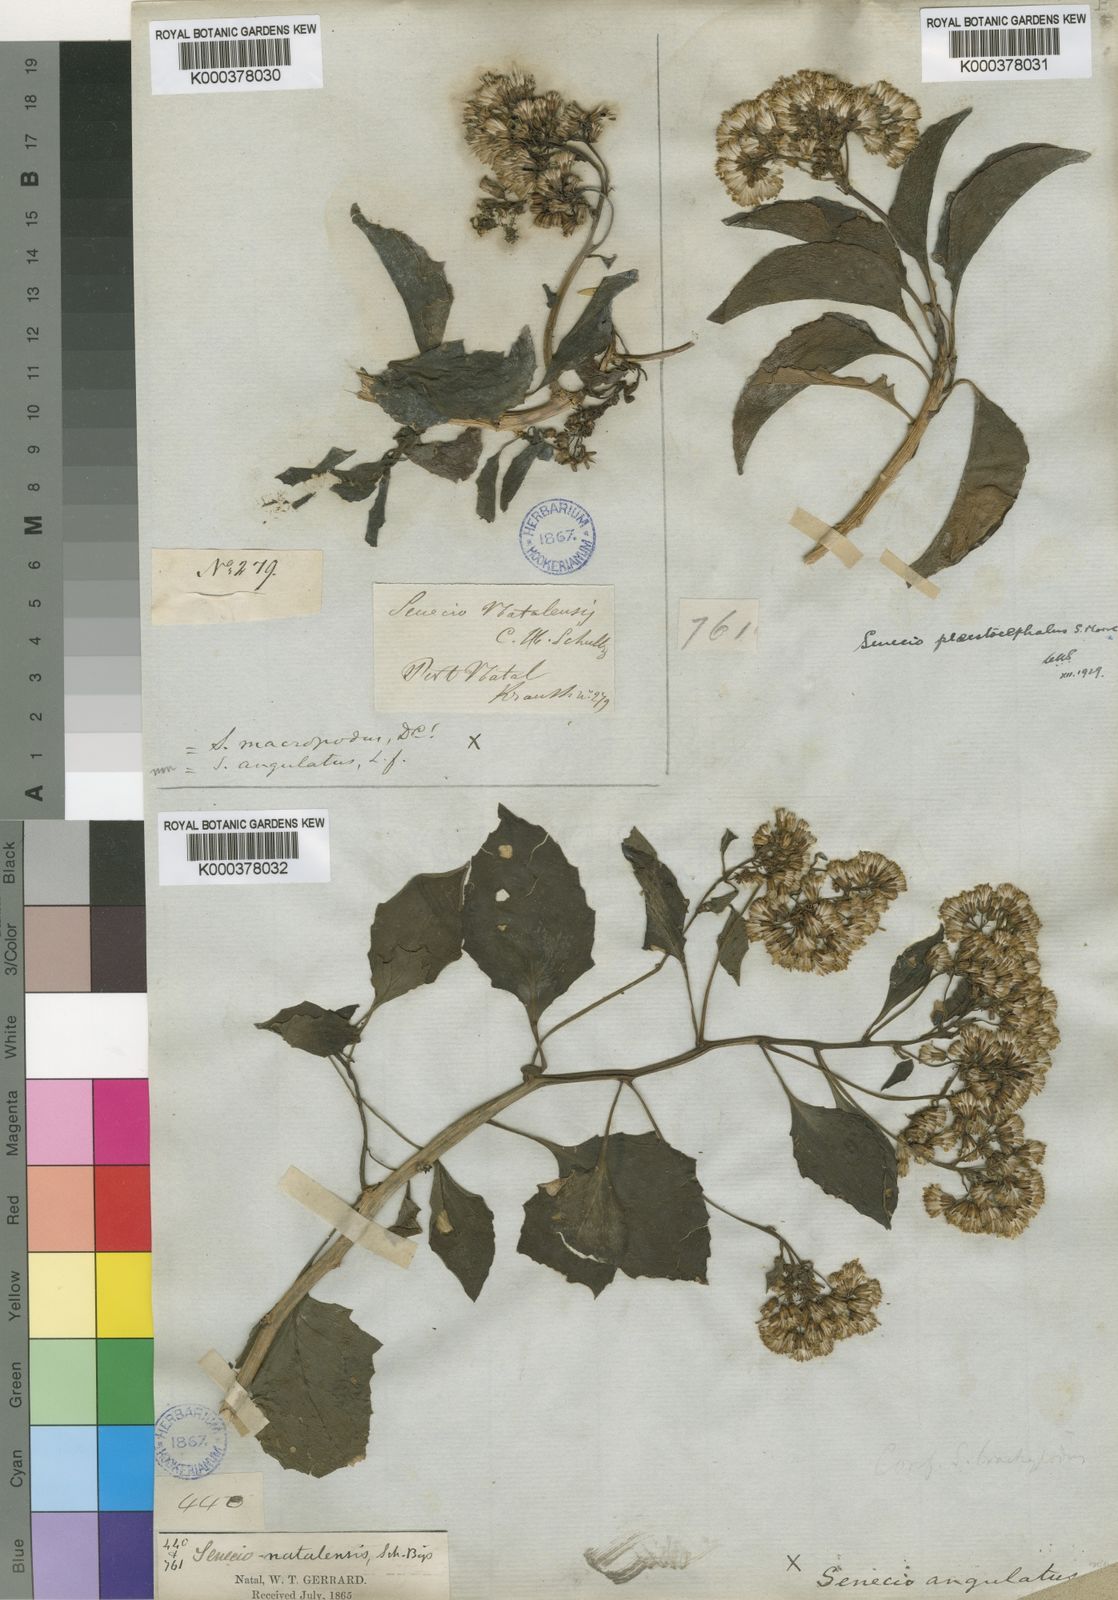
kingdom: Plantae
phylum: Tracheophyta
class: Magnoliopsida
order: Asterales
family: Asteraceae
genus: Senecio
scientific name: Senecio brachypodus
